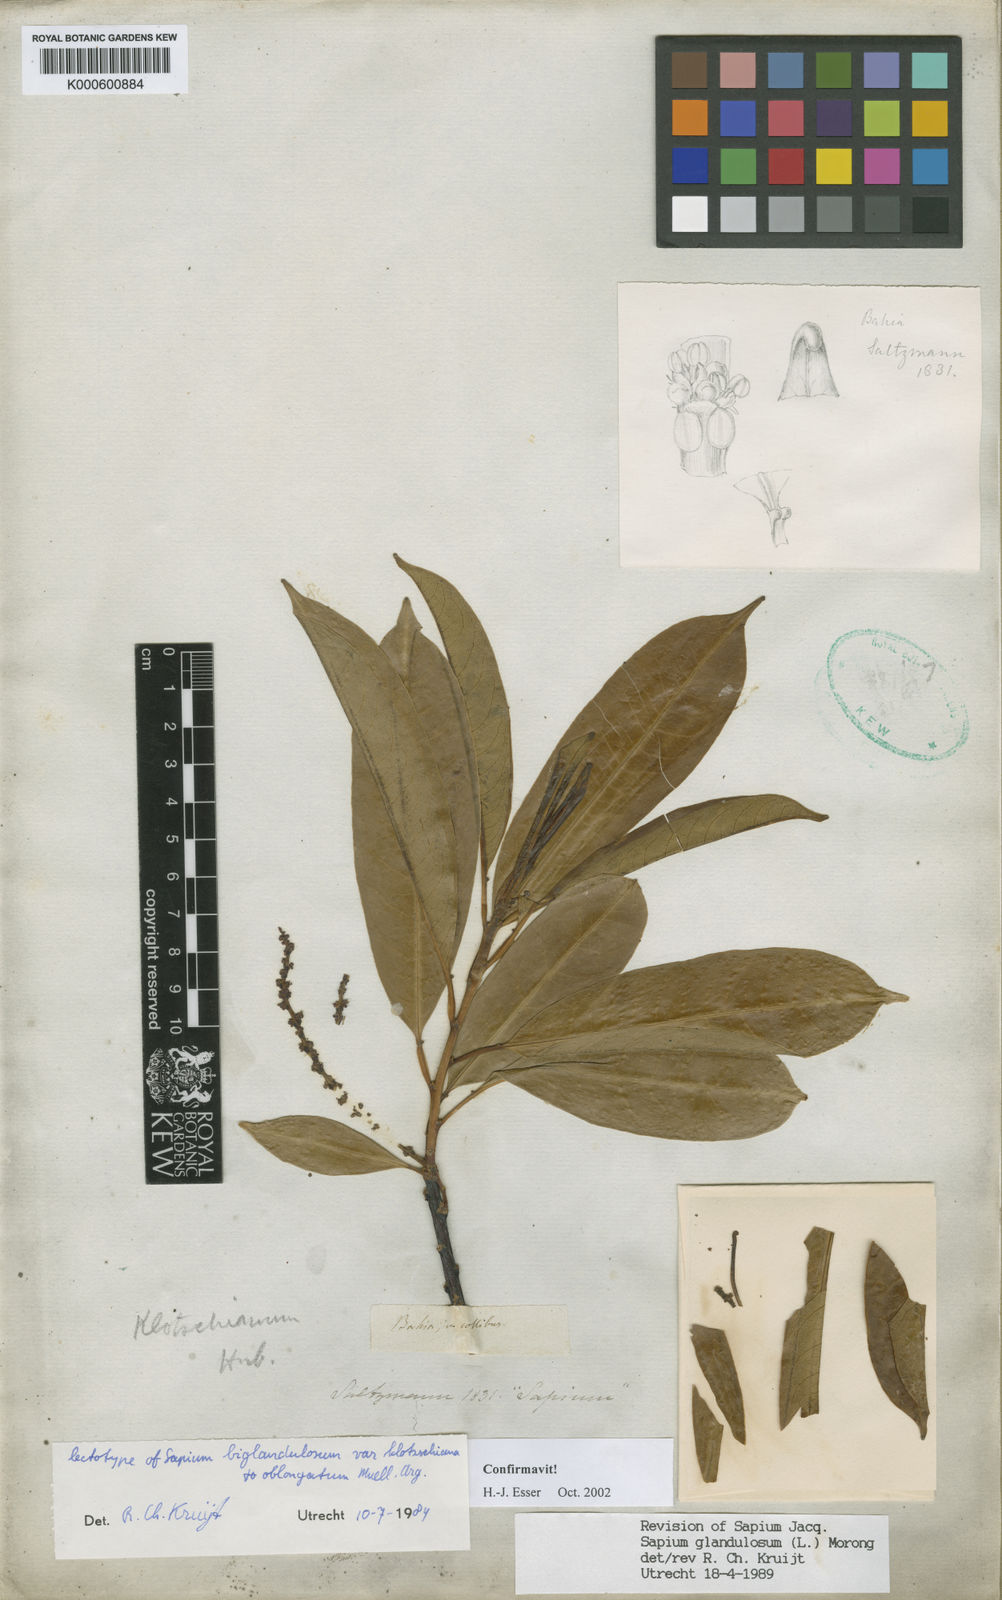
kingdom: Plantae
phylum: Tracheophyta
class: Magnoliopsida
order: Malpighiales
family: Euphorbiaceae
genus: Sapium
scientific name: Sapium glandulosum
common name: Milktree
